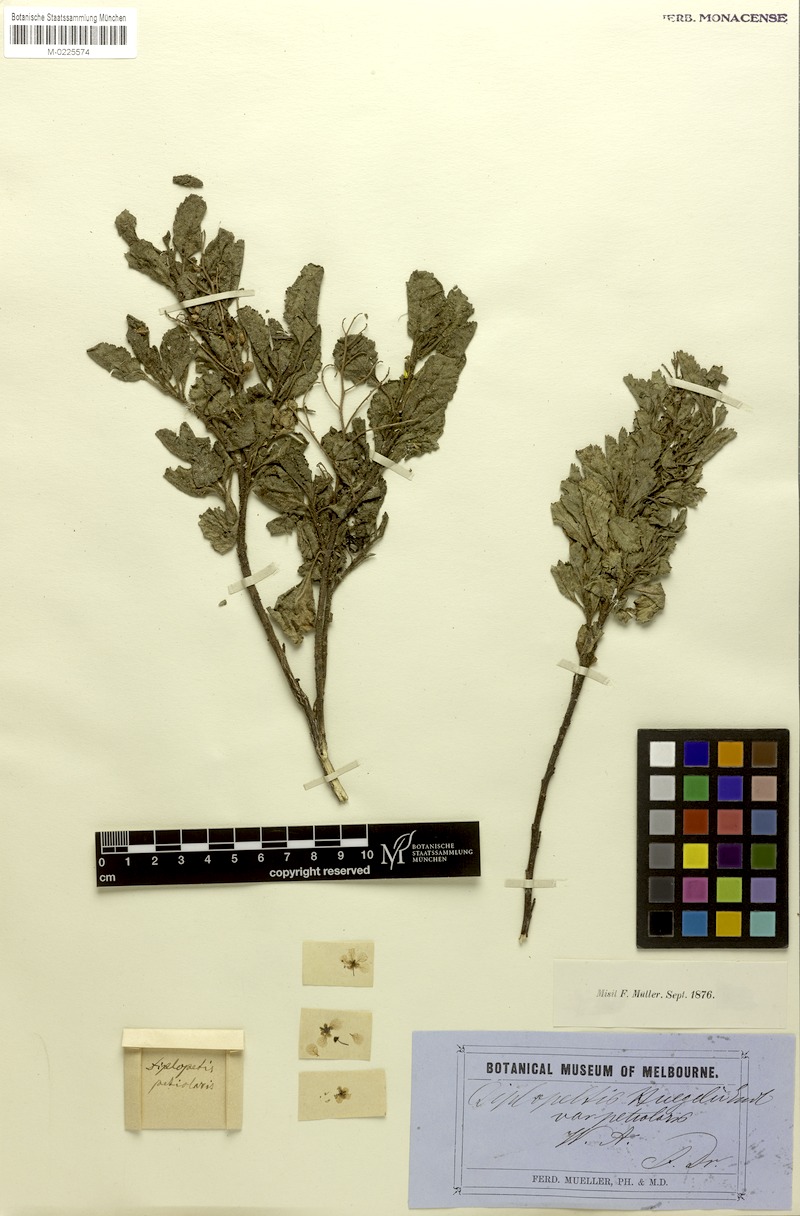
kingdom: Plantae
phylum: Tracheophyta
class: Magnoliopsida
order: Sapindales
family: Sapindaceae
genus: Dodonaea
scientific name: Dodonaea petiolaris
